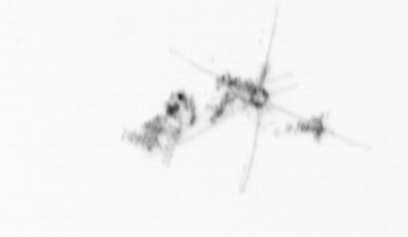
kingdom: Chromista
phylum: Ochrophyta
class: Bacillariophyceae
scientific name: Bacillariophyceae
